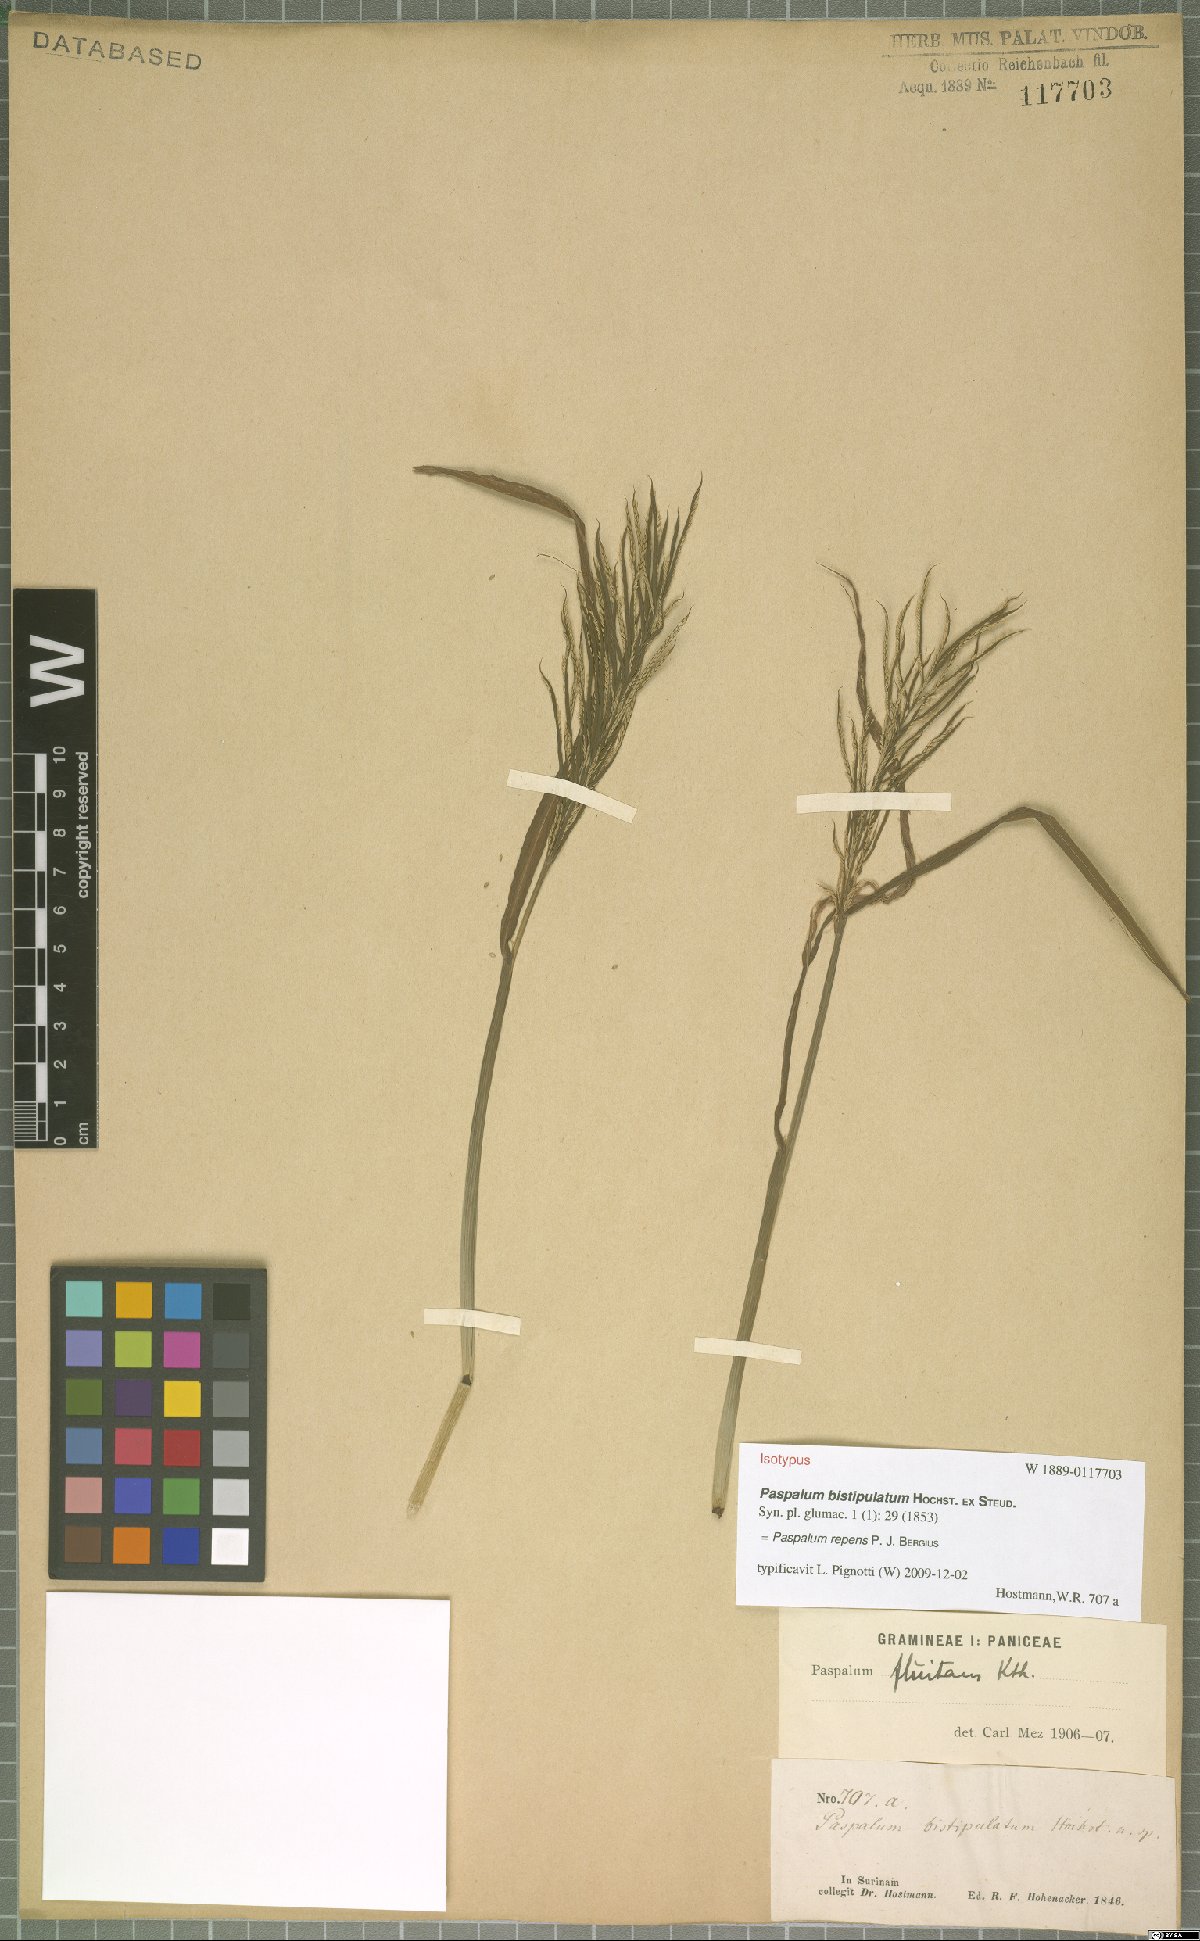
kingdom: Plantae
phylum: Tracheophyta
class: Liliopsida
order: Poales
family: Poaceae
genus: Paspalum
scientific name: Paspalum repens
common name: Water paspalum
